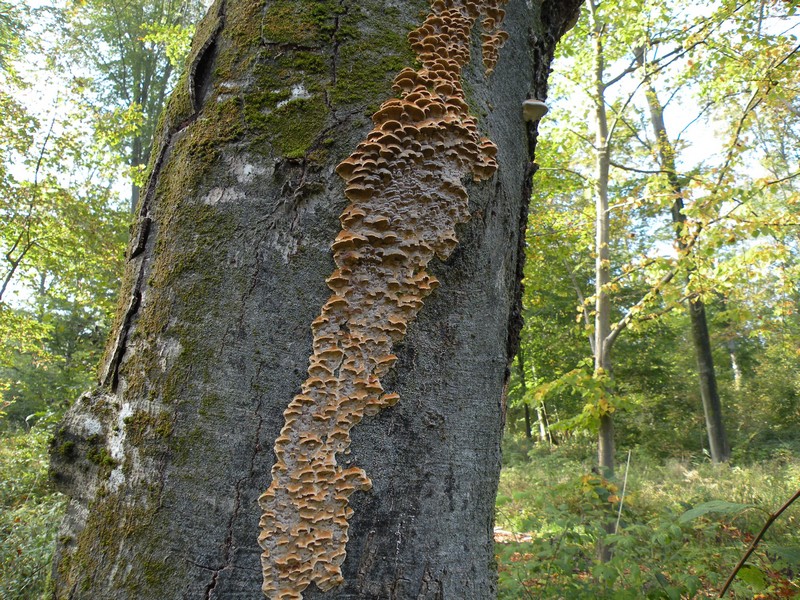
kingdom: Fungi
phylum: Basidiomycota
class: Agaricomycetes
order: Hymenochaetales
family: Hymenochaetaceae
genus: Mensularia
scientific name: Mensularia nodulosa
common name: bøge-spejlporesvamp
